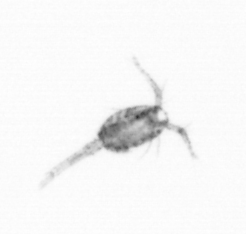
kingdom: Animalia
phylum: Arthropoda
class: Copepoda
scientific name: Copepoda
